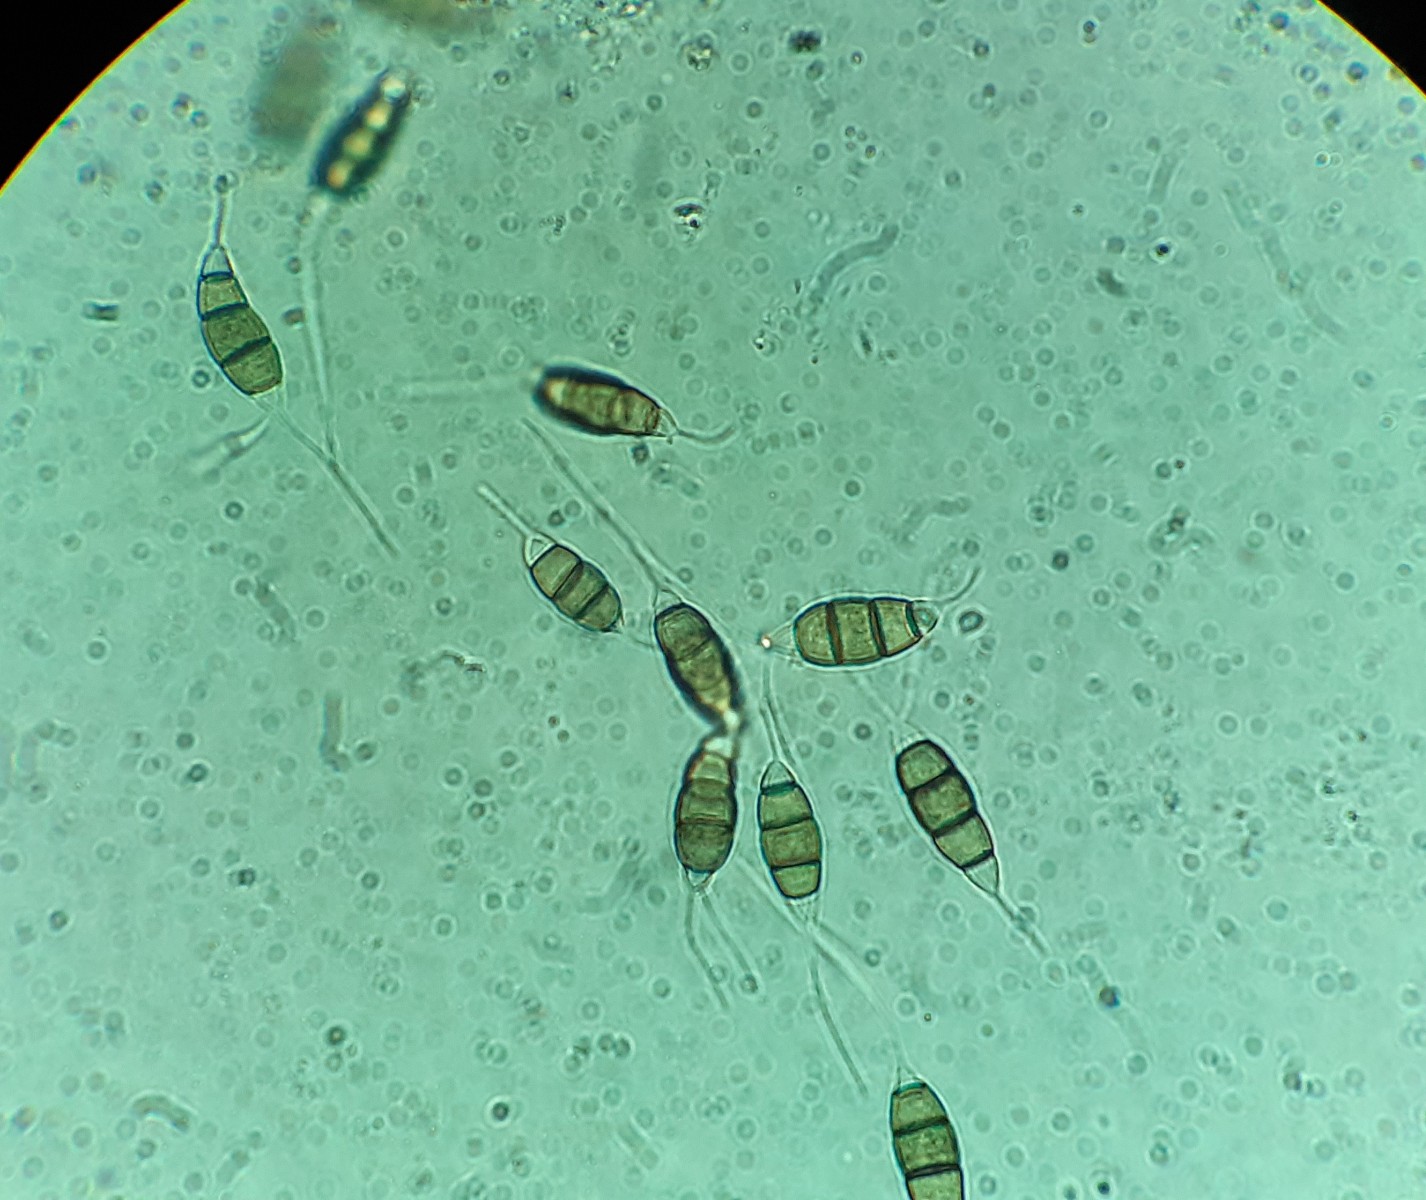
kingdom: Fungi
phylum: Ascomycota
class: Sordariomycetes
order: Amphisphaeriales
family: Pestalotiopsidaceae
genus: Pestalotiopsis
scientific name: Pestalotiopsis funerea
